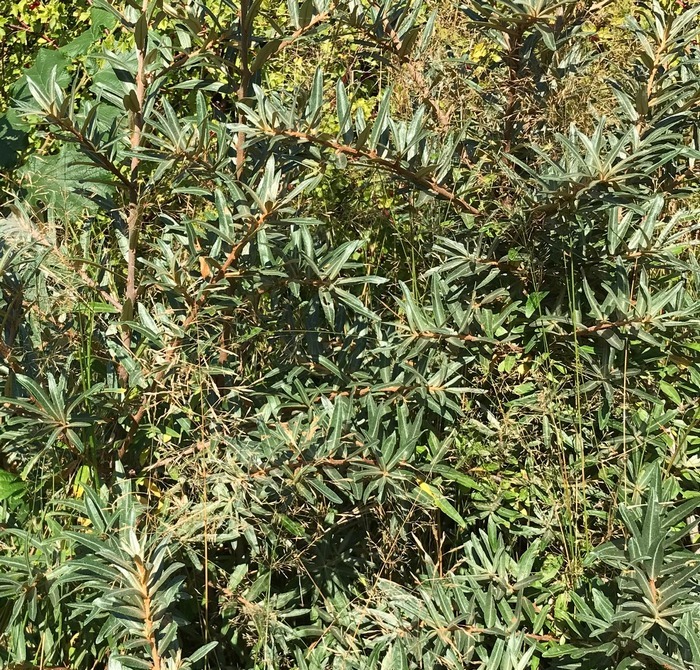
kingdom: Plantae
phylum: Tracheophyta
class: Magnoliopsida
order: Rosales
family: Elaeagnaceae
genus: Hippophae
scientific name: Hippophae rhamnoides
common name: Havtorn
